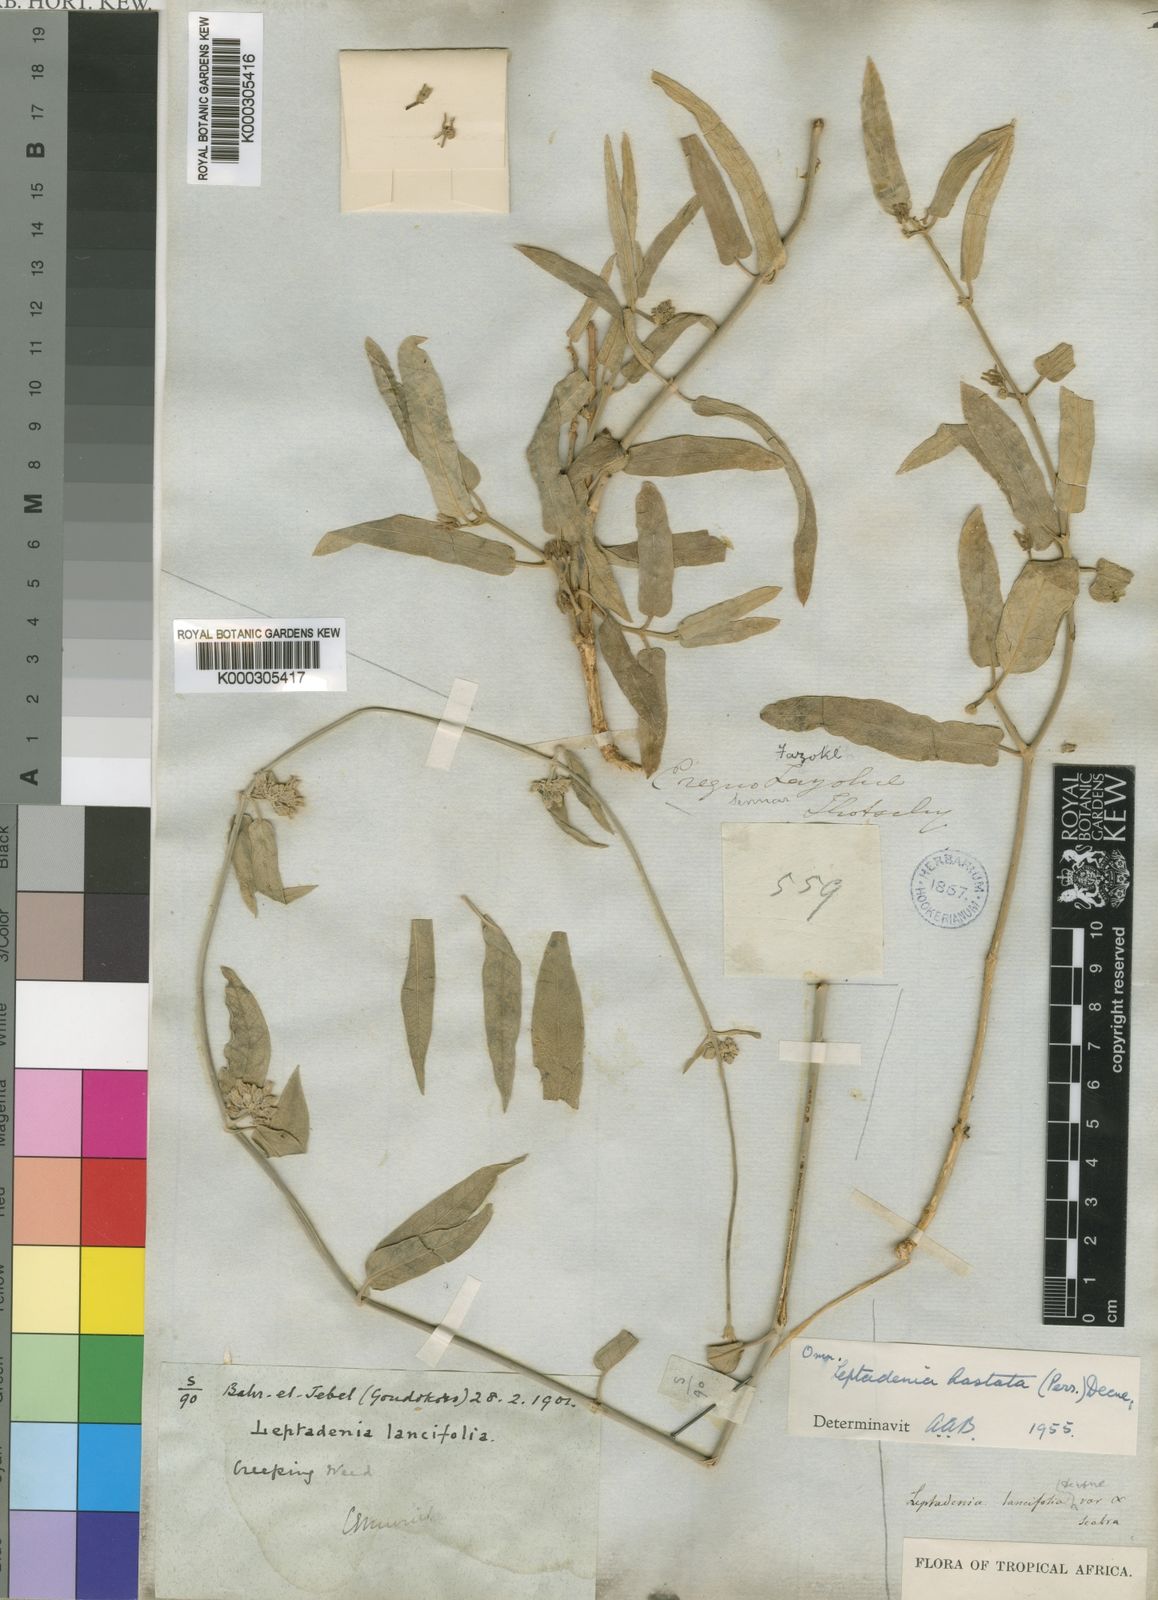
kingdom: Plantae
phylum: Tracheophyta
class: Magnoliopsida
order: Gentianales
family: Apocynaceae
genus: Leptadenia
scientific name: Leptadenia
